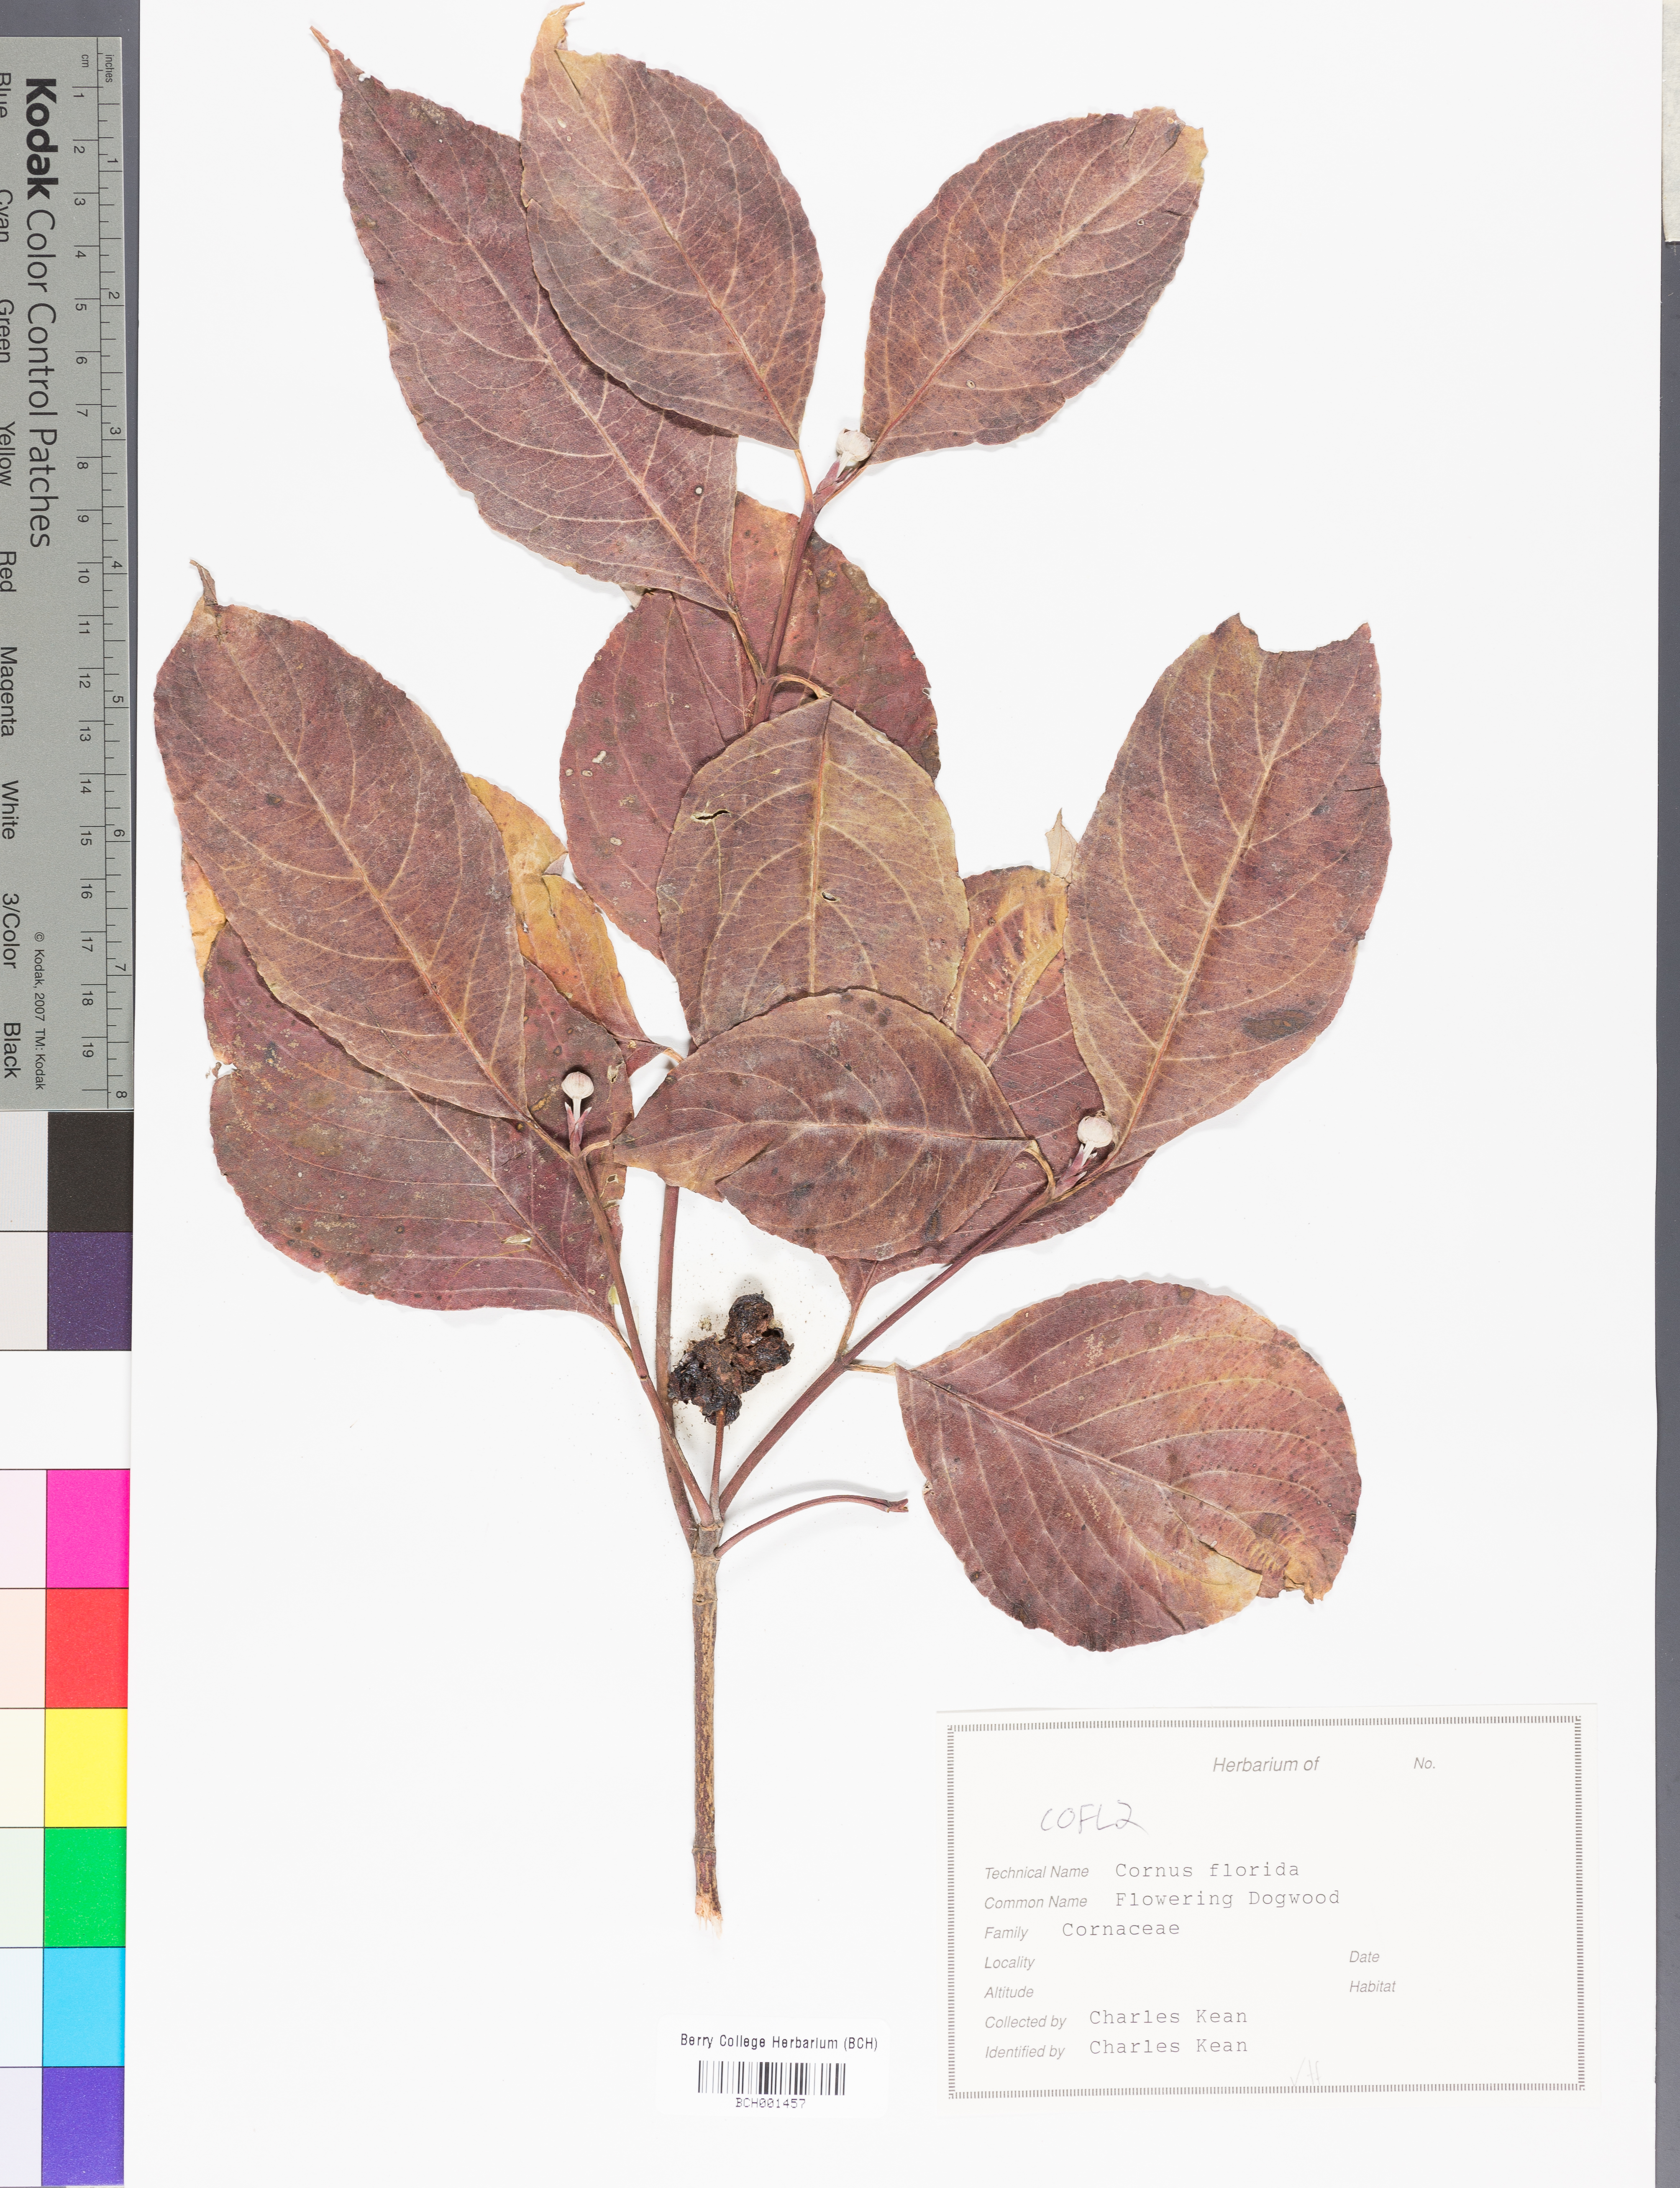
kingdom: Plantae
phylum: Tracheophyta
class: Magnoliopsida
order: Cornales
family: Cornaceae
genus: Cornus
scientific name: Cornus florida
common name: Flowering dogwood
